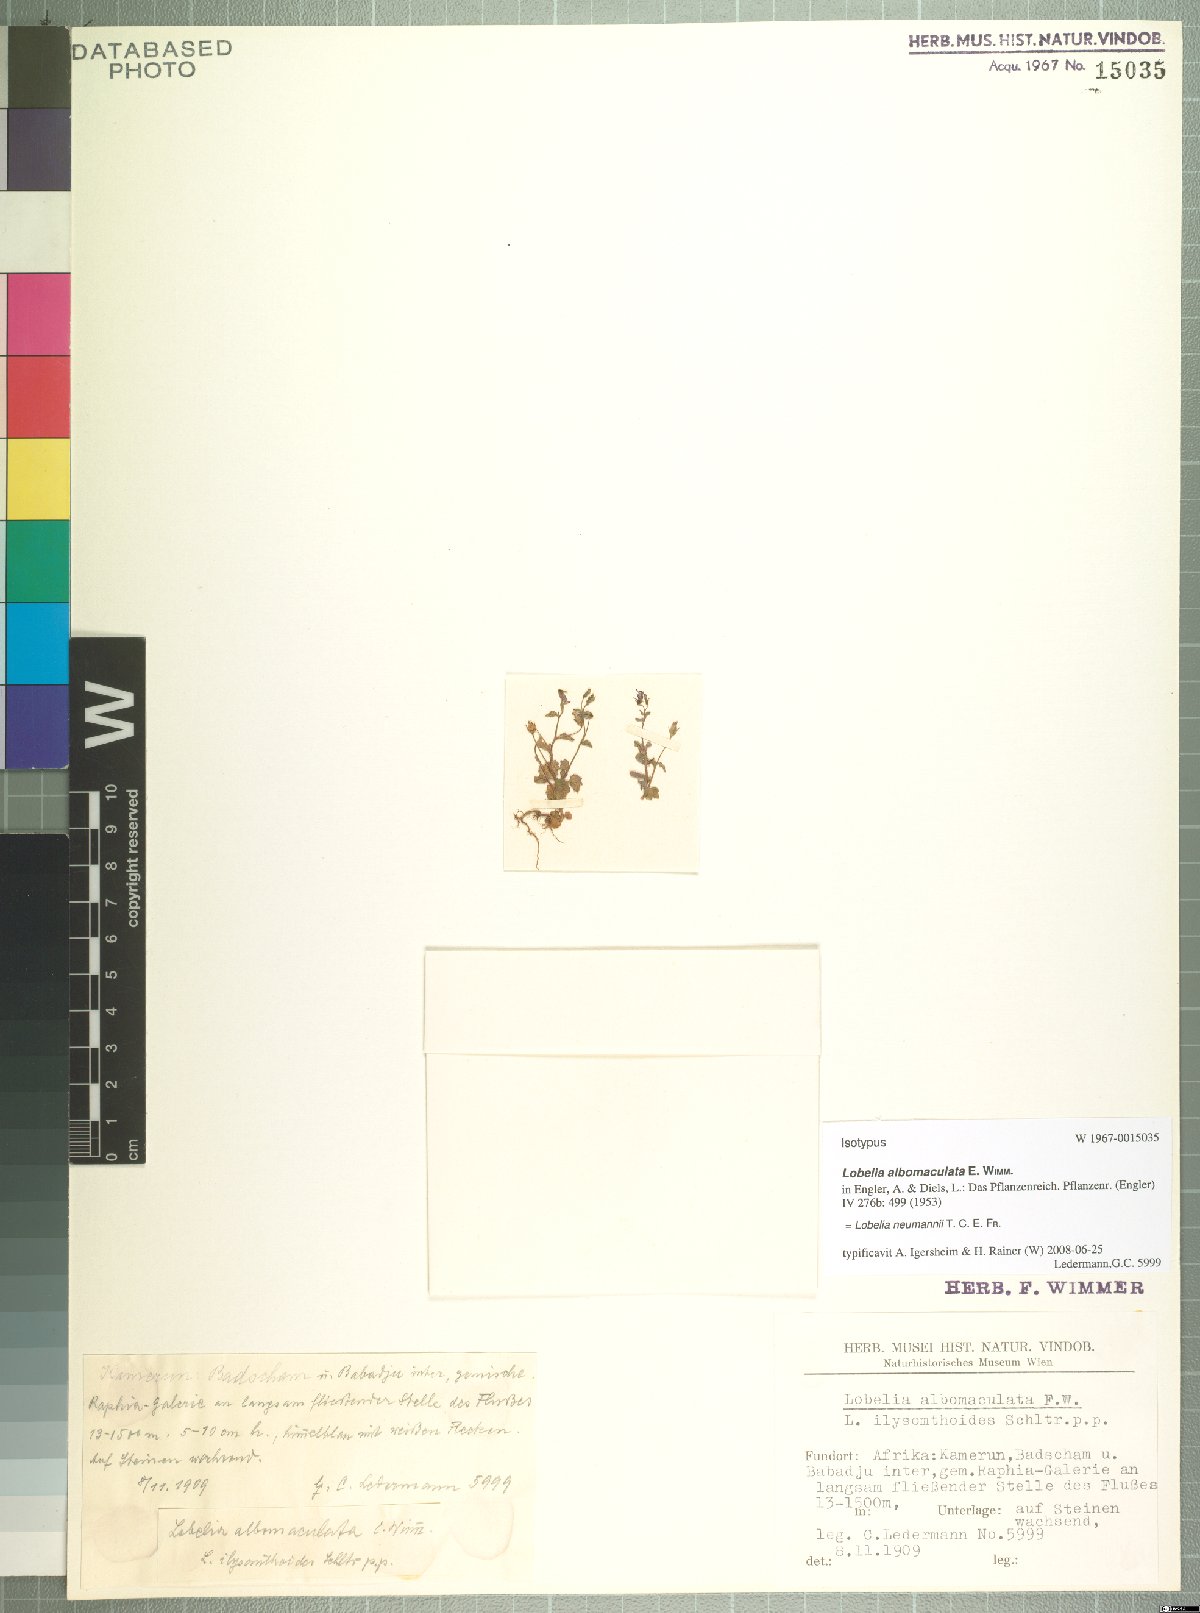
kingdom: Plantae
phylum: Tracheophyta
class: Magnoliopsida
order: Asterales
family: Campanulaceae
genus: Lobelia
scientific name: Lobelia neumannii
